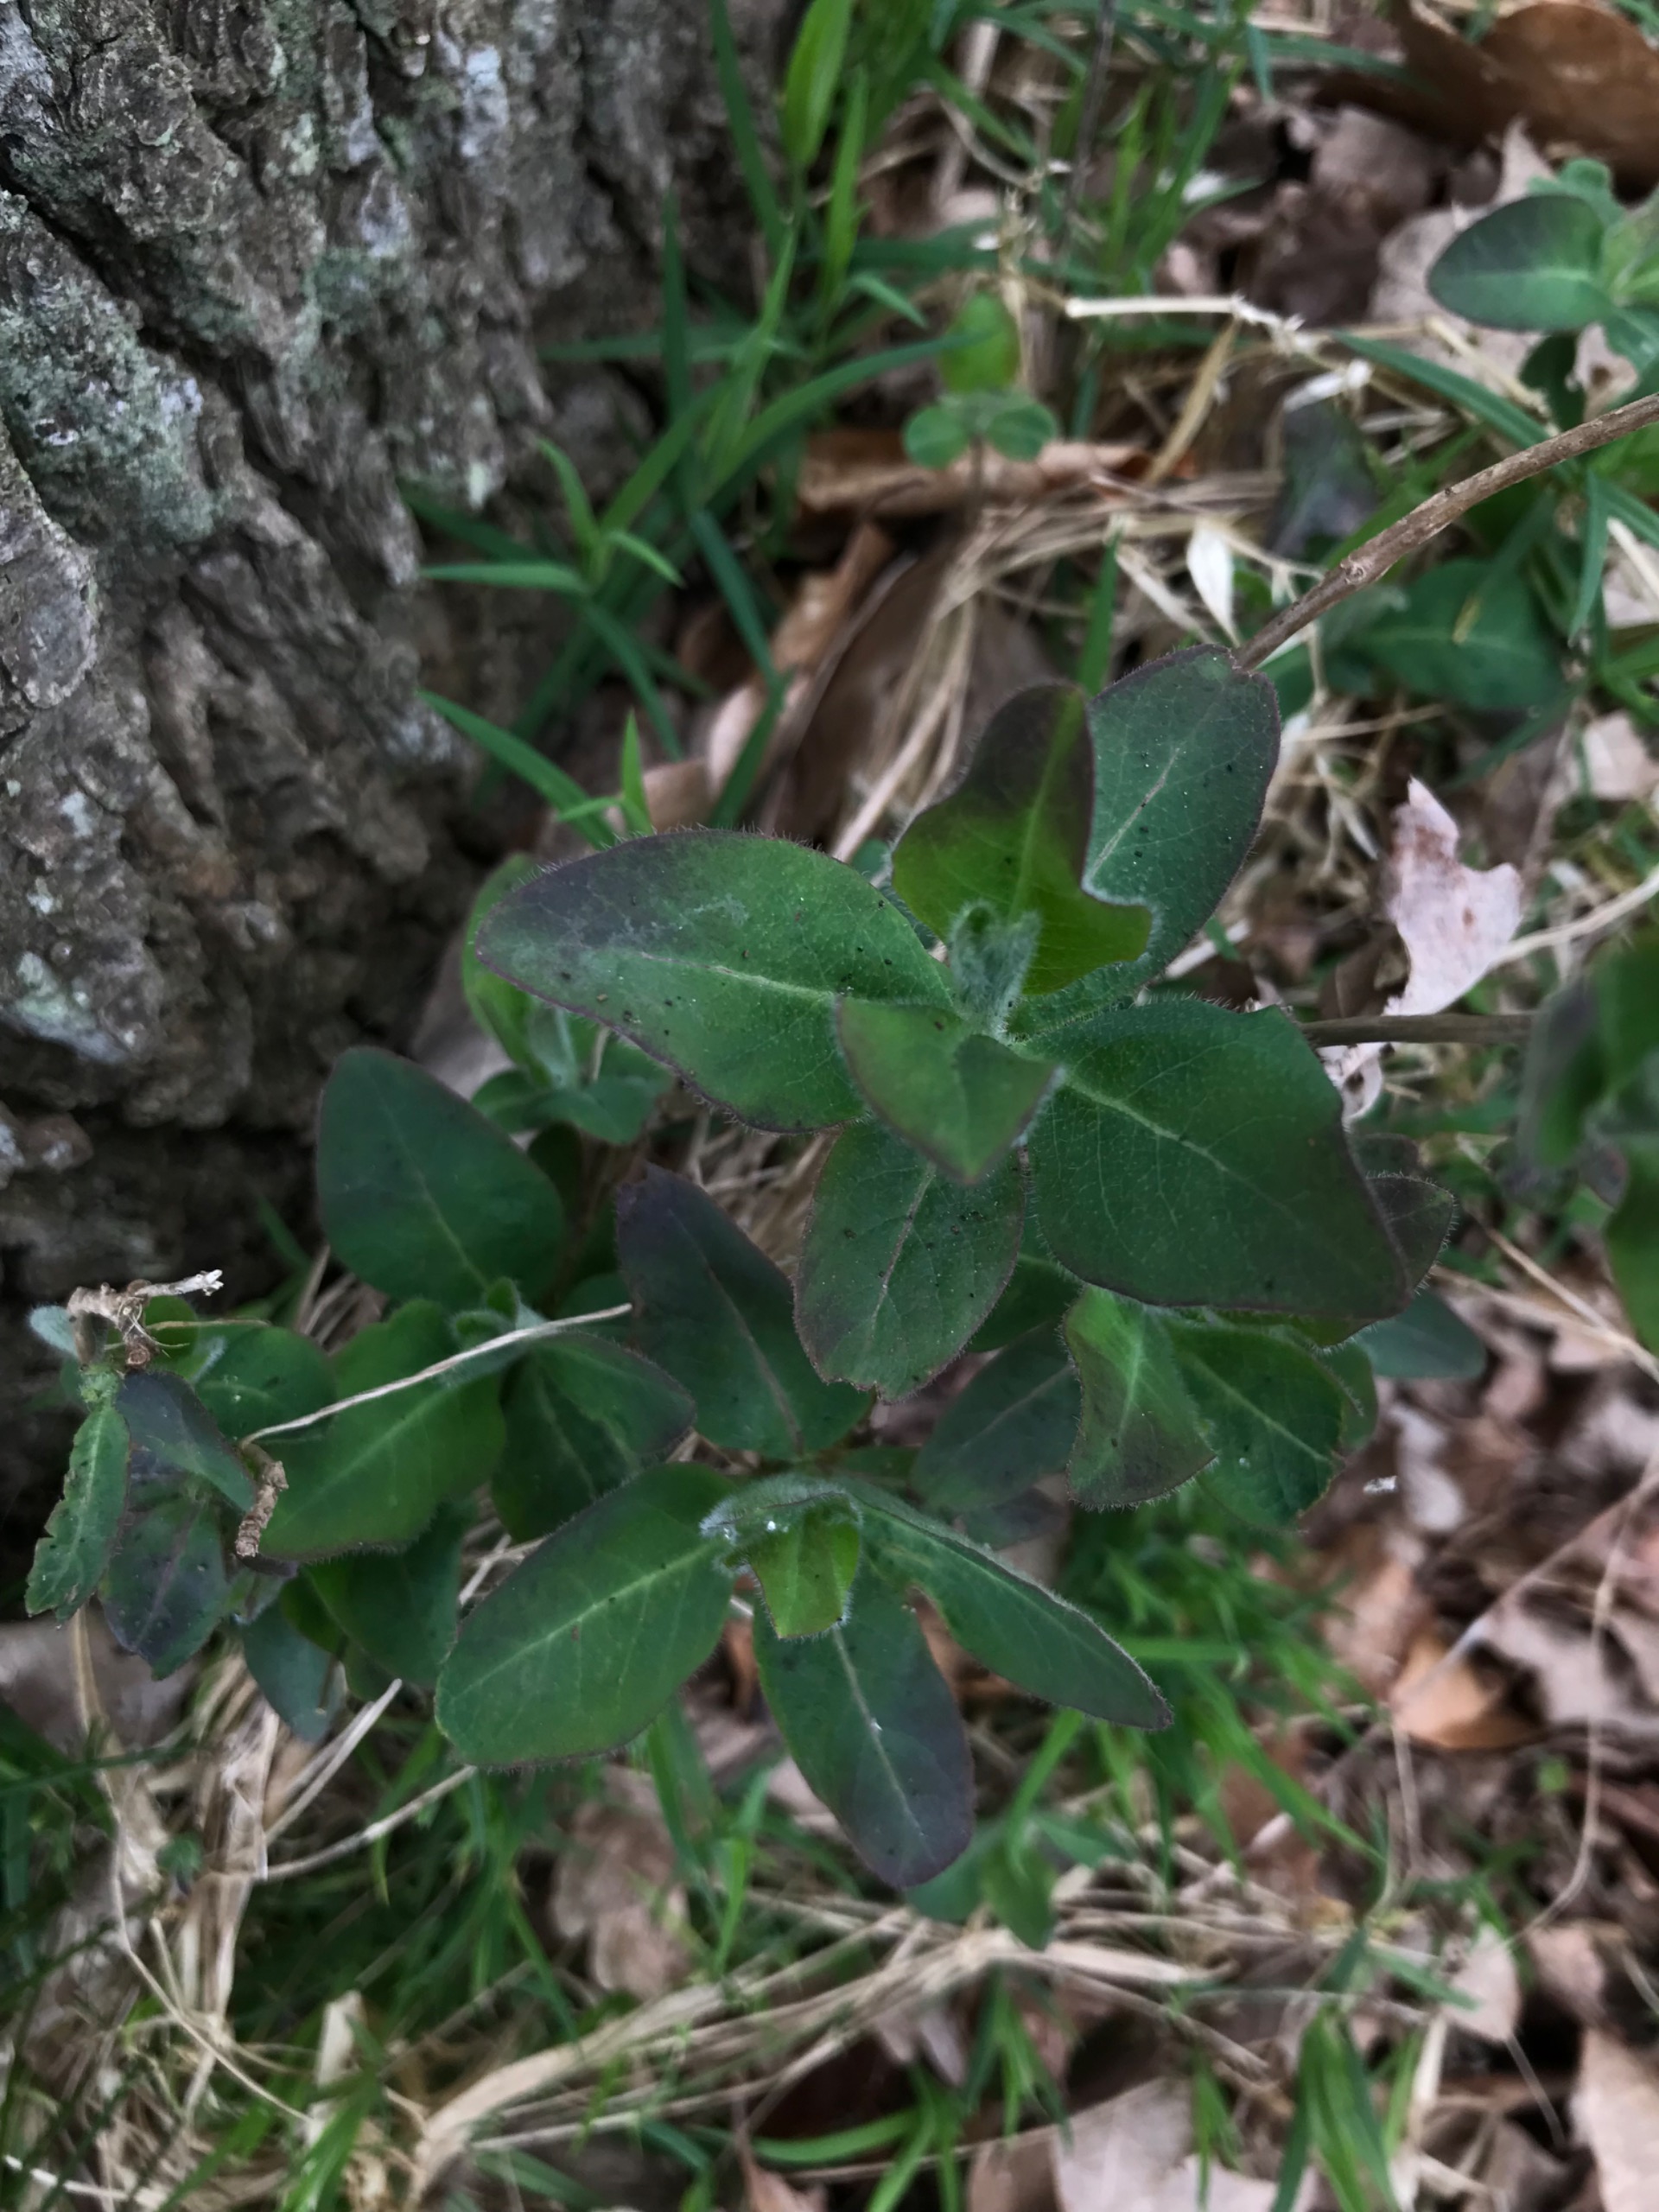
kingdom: Plantae
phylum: Tracheophyta
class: Magnoliopsida
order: Dipsacales
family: Caprifoliaceae
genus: Lonicera
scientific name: Lonicera periclymenum
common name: Almindelig gedeblad
